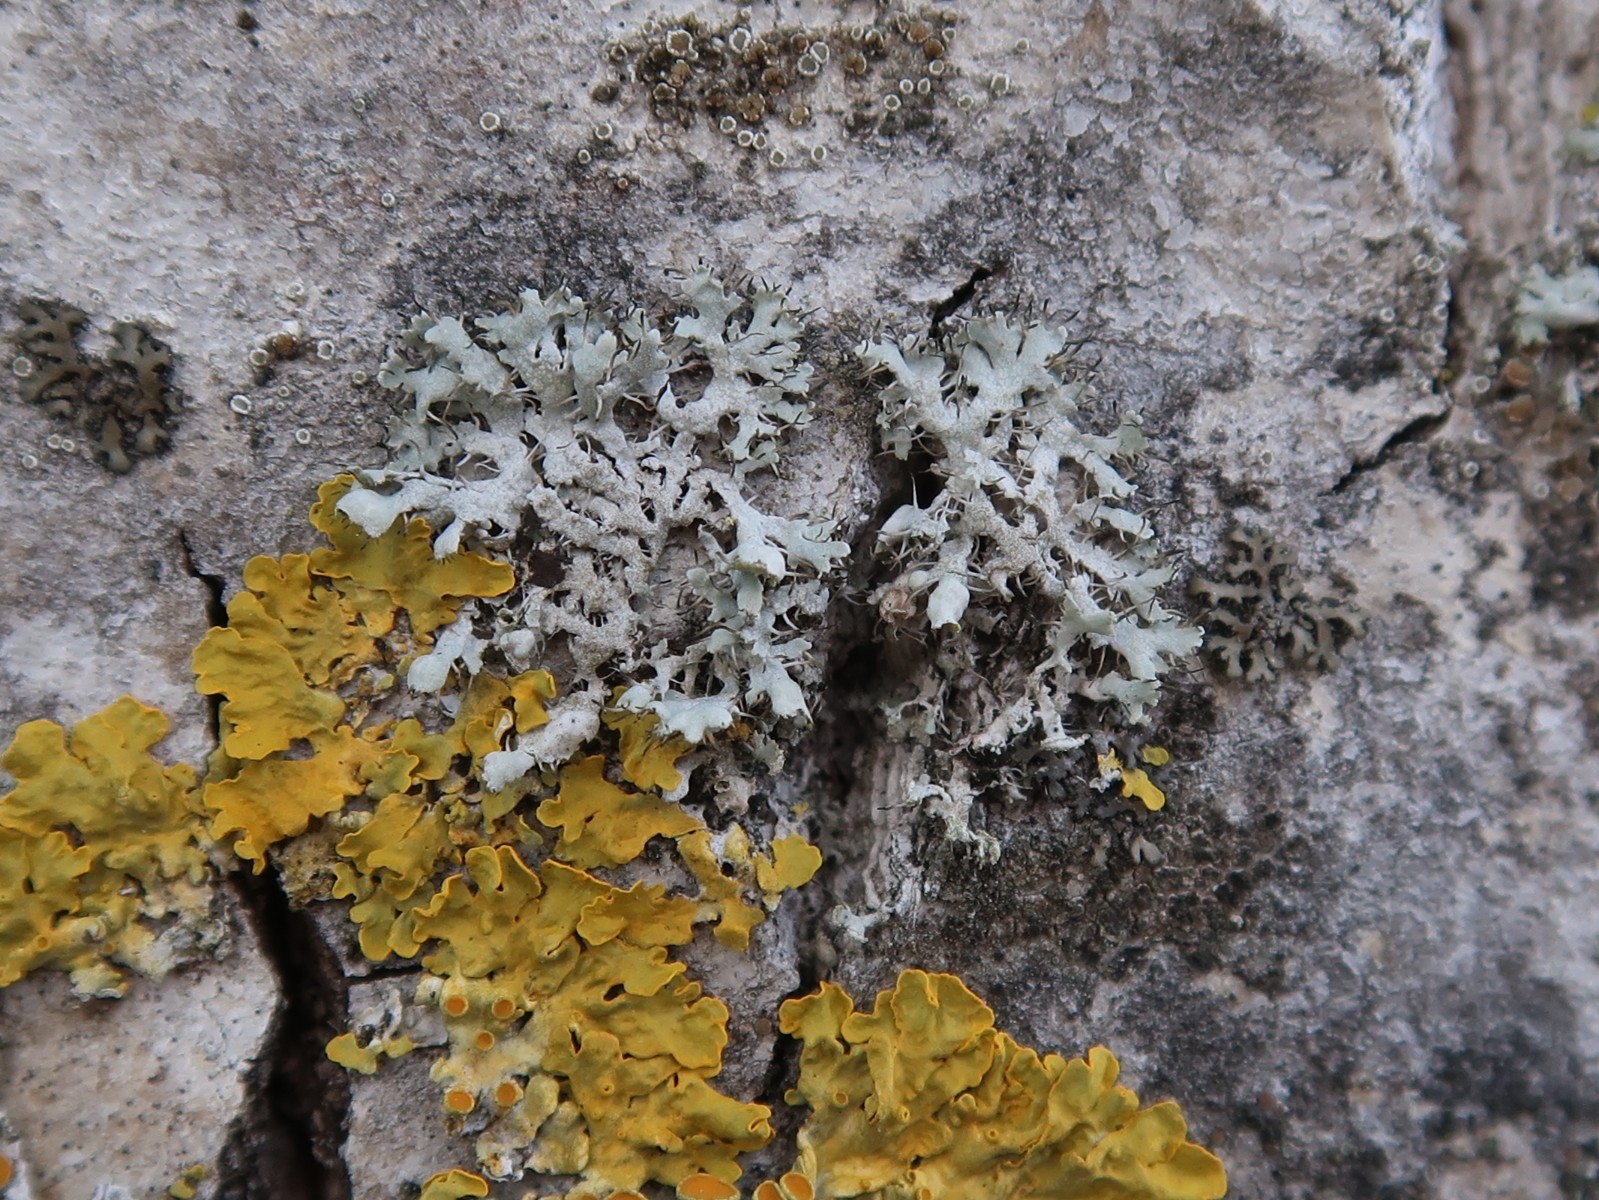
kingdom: Fungi
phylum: Ascomycota
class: Lecanoromycetes
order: Caliciales
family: Physciaceae
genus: Physcia
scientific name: Physcia adscendens
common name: hætte-rosetlav
